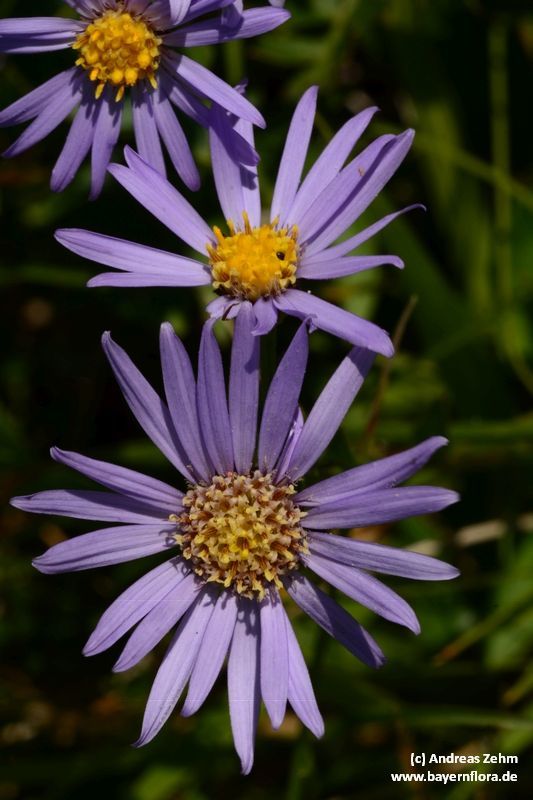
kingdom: Plantae
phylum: Tracheophyta
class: Magnoliopsida
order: Asterales
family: Asteraceae
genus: Aster
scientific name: Aster amellus
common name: European michaelmas daisy
